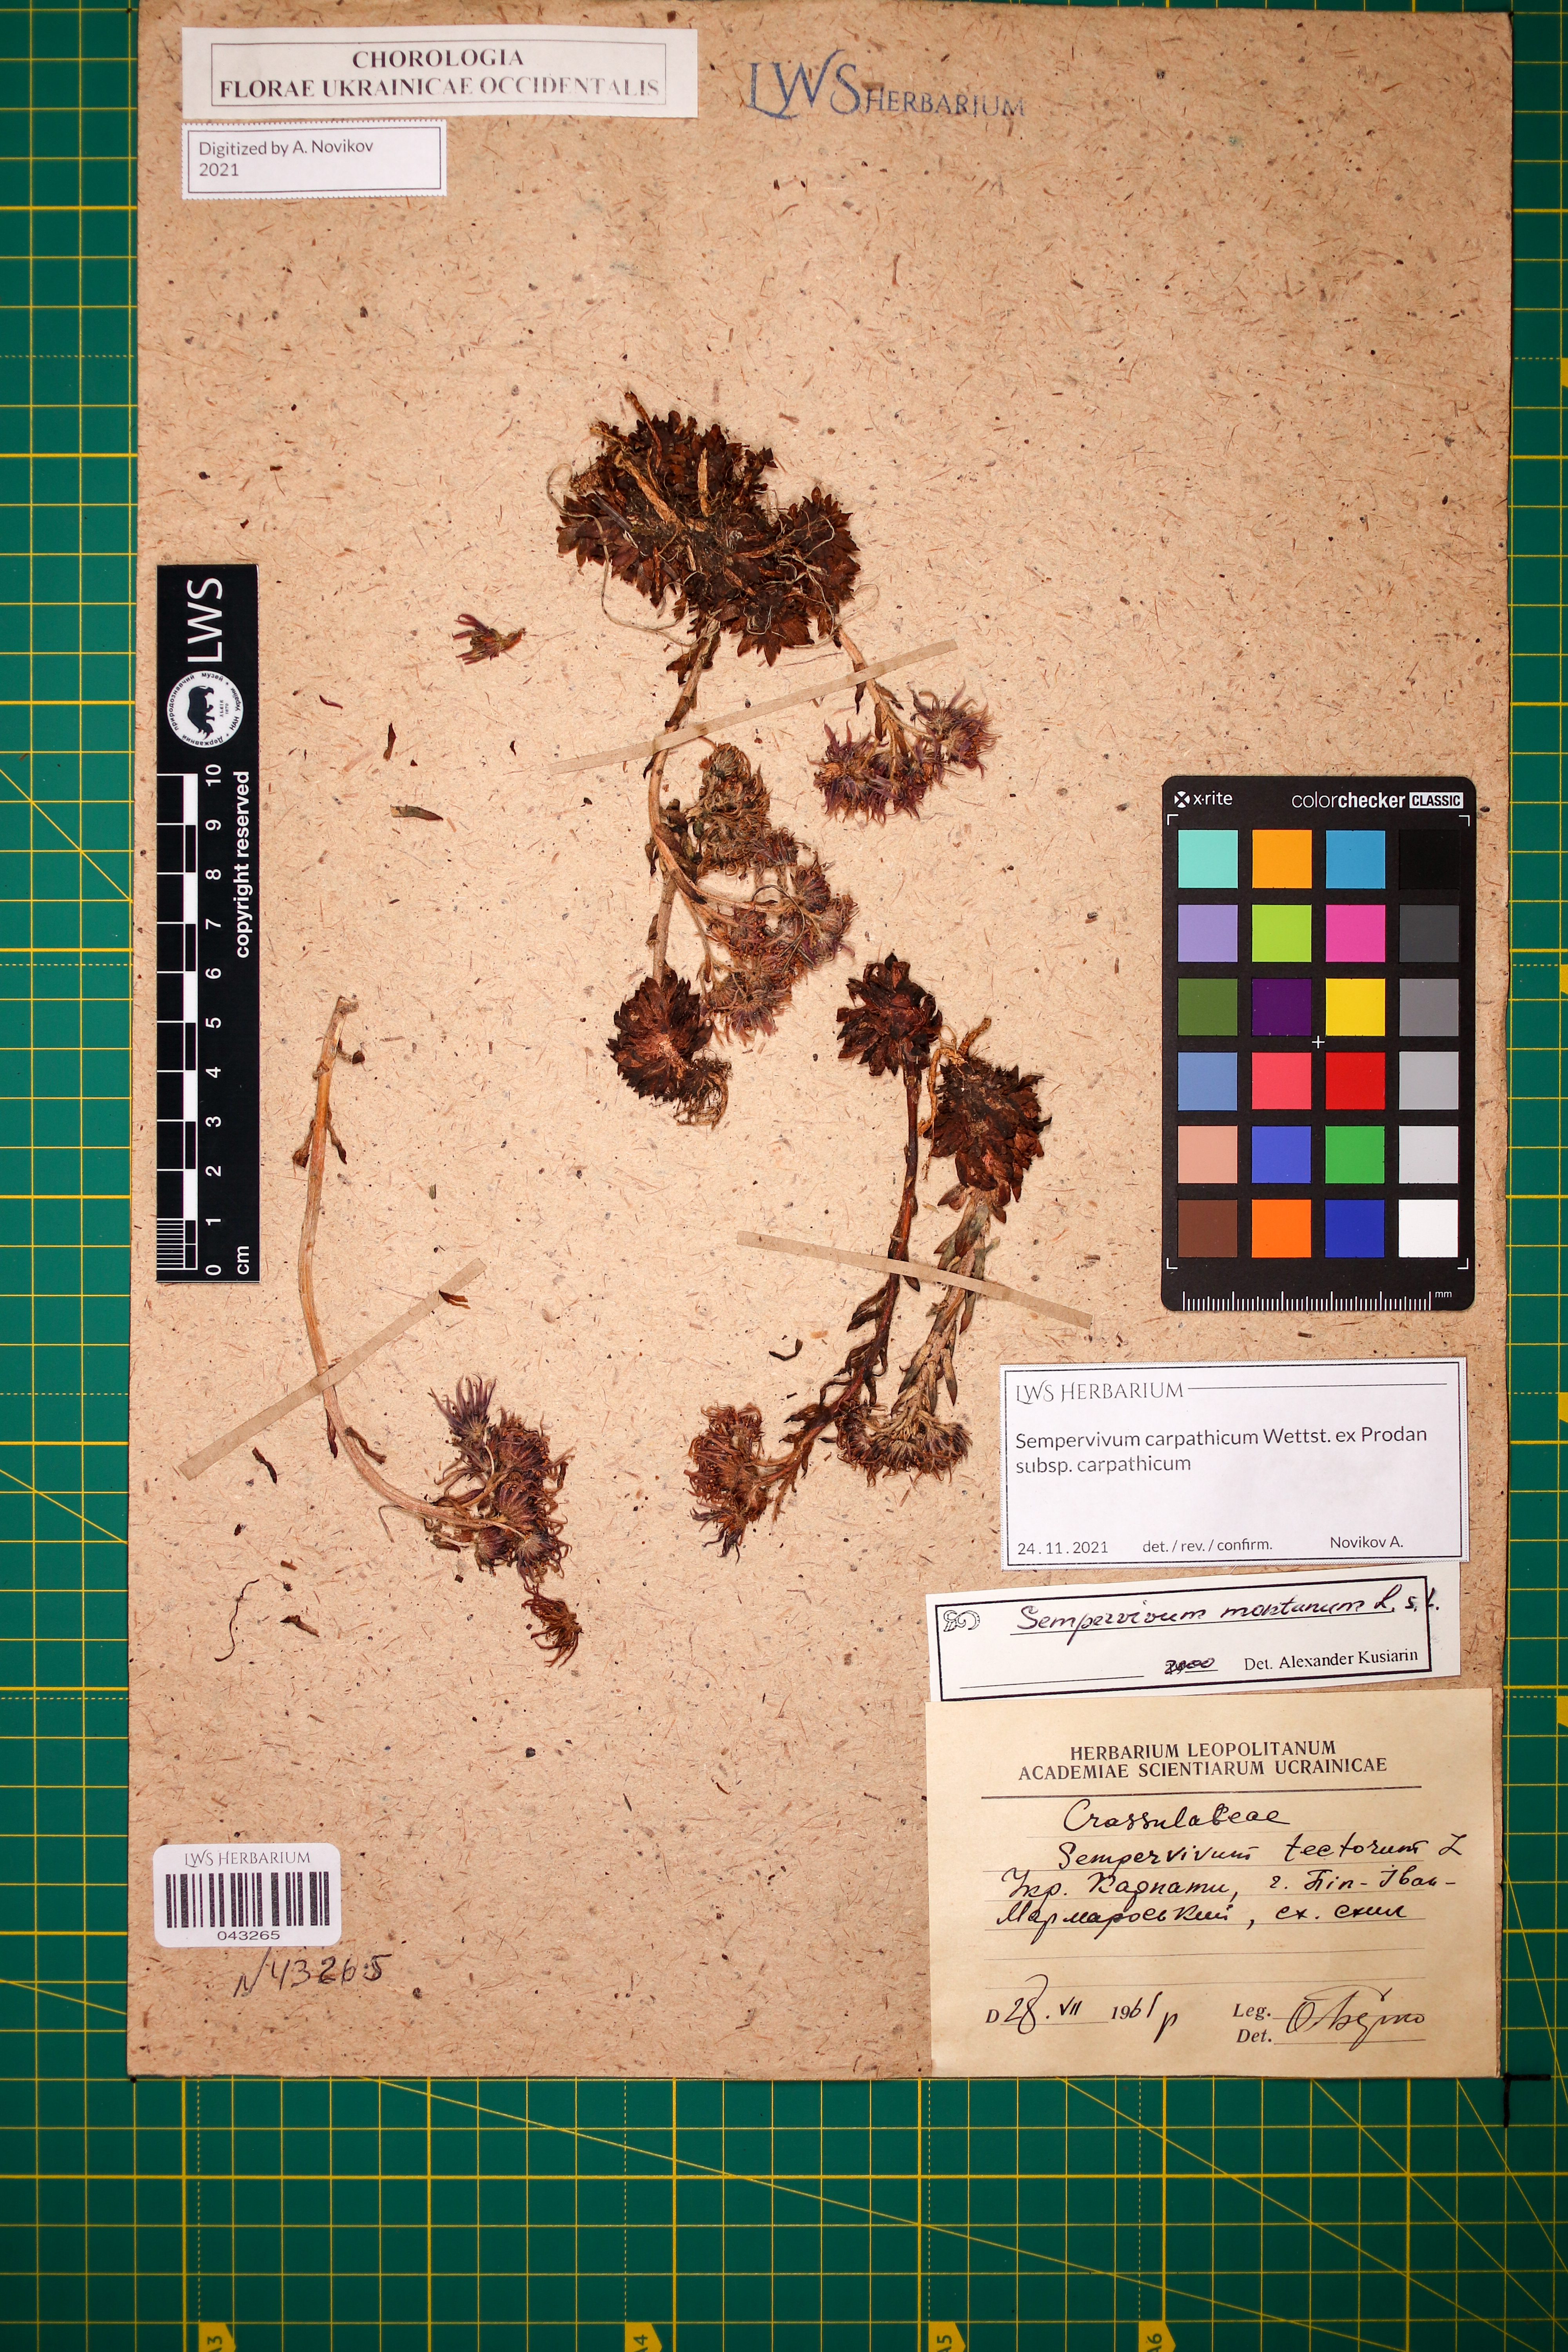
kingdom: Plantae
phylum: Tracheophyta
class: Magnoliopsida
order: Saxifragales
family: Crassulaceae
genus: Sempervivum
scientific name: Sempervivum montanum
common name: Mountain house-leek
